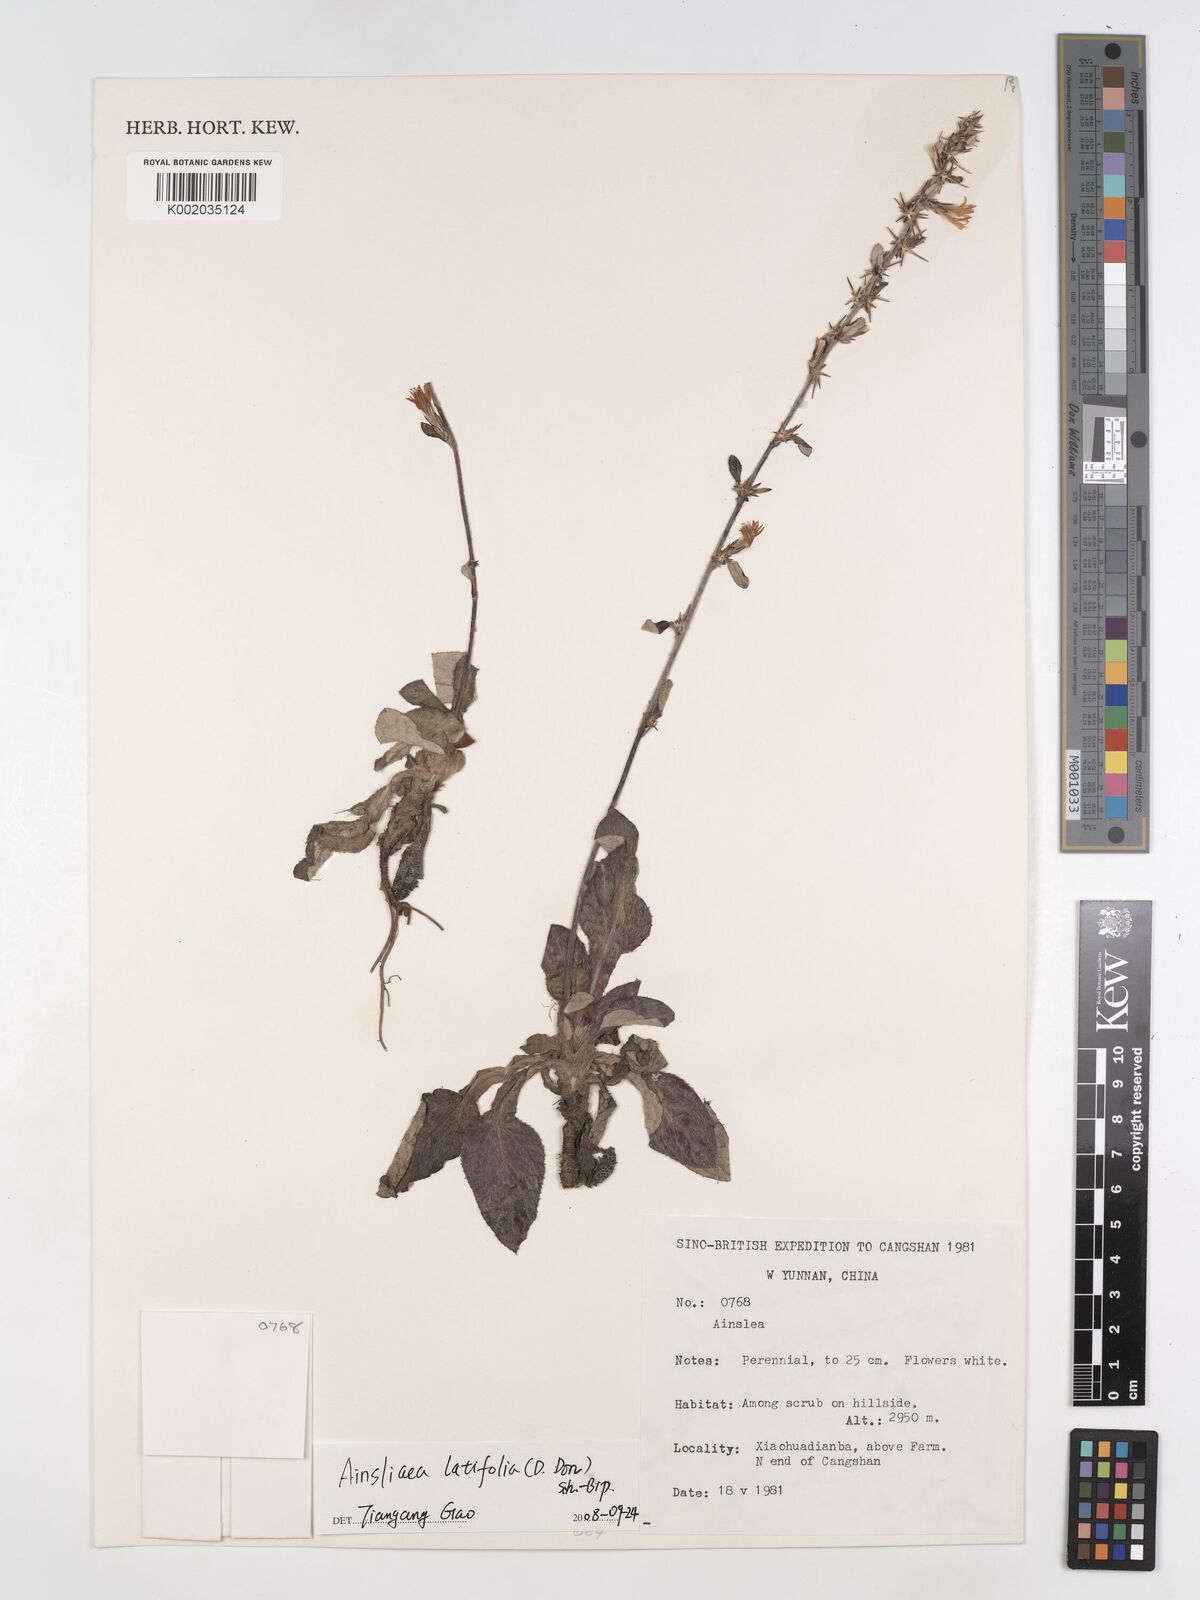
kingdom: Plantae
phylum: Tracheophyta
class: Magnoliopsida
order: Asterales
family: Asteraceae
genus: Ainsliaea
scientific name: Ainsliaea latifolia
